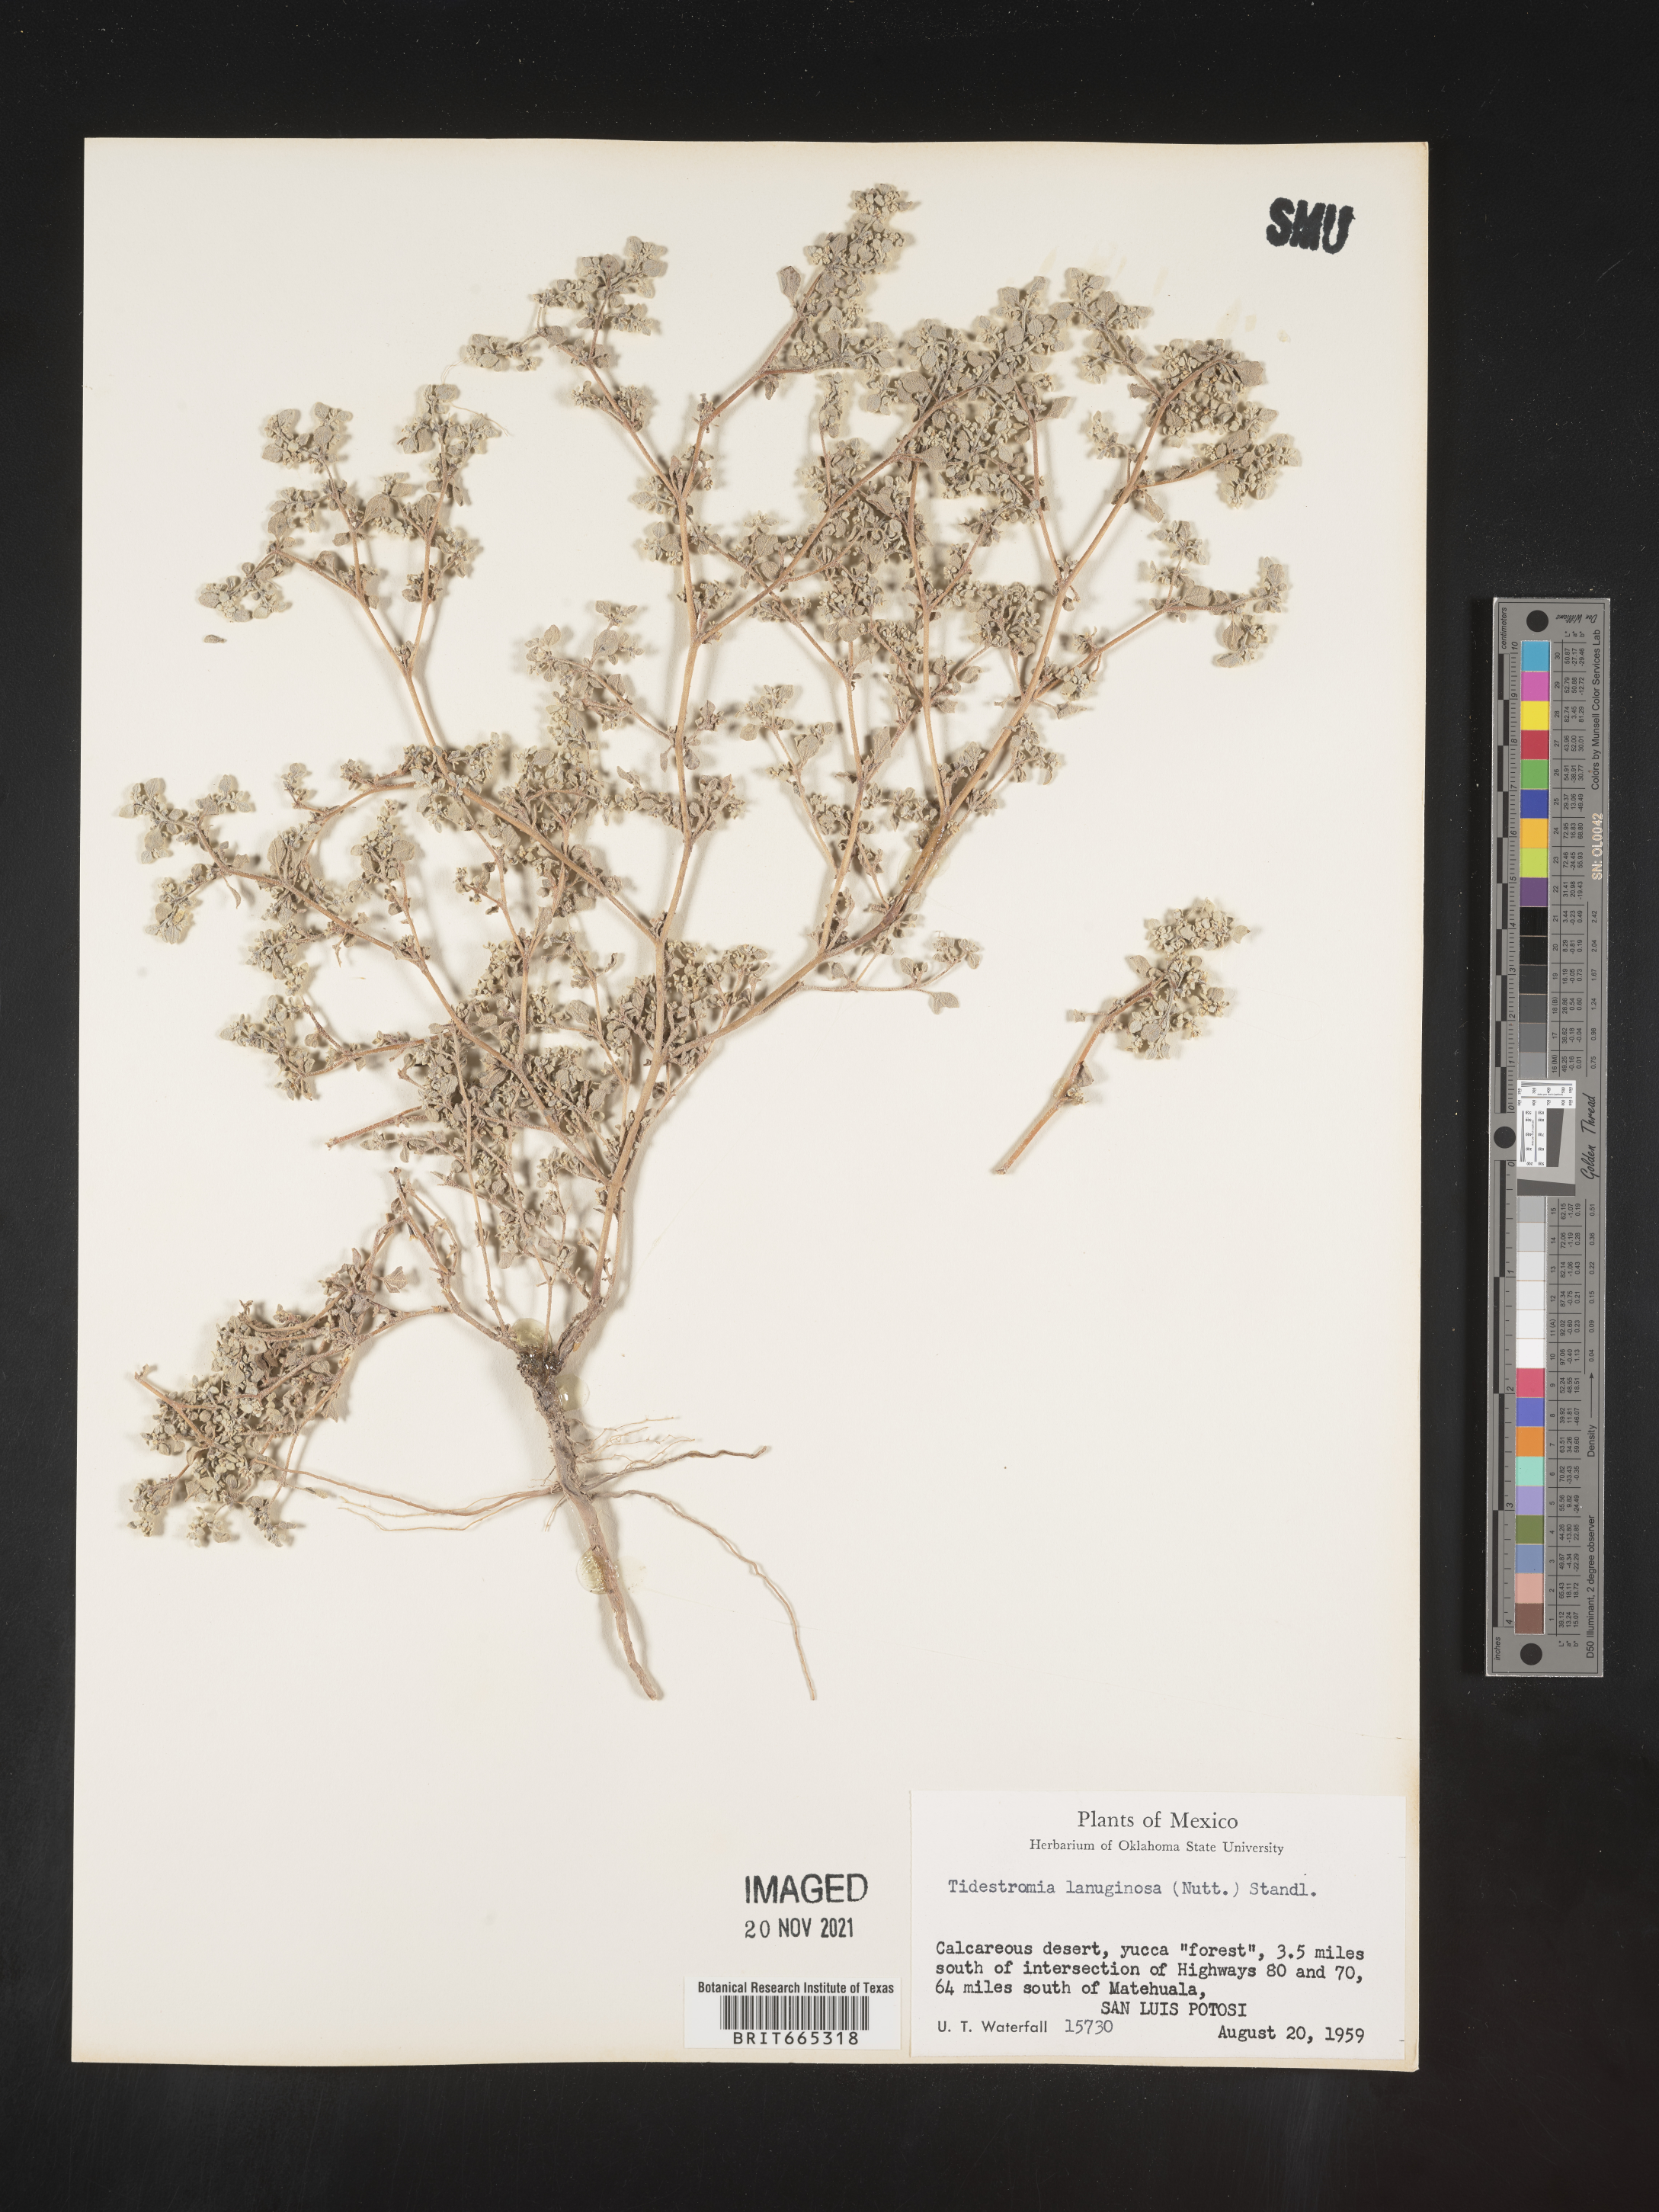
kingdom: Plantae
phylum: Tracheophyta
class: Magnoliopsida
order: Caryophyllales
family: Amaranthaceae
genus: Tidestromia
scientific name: Tidestromia
